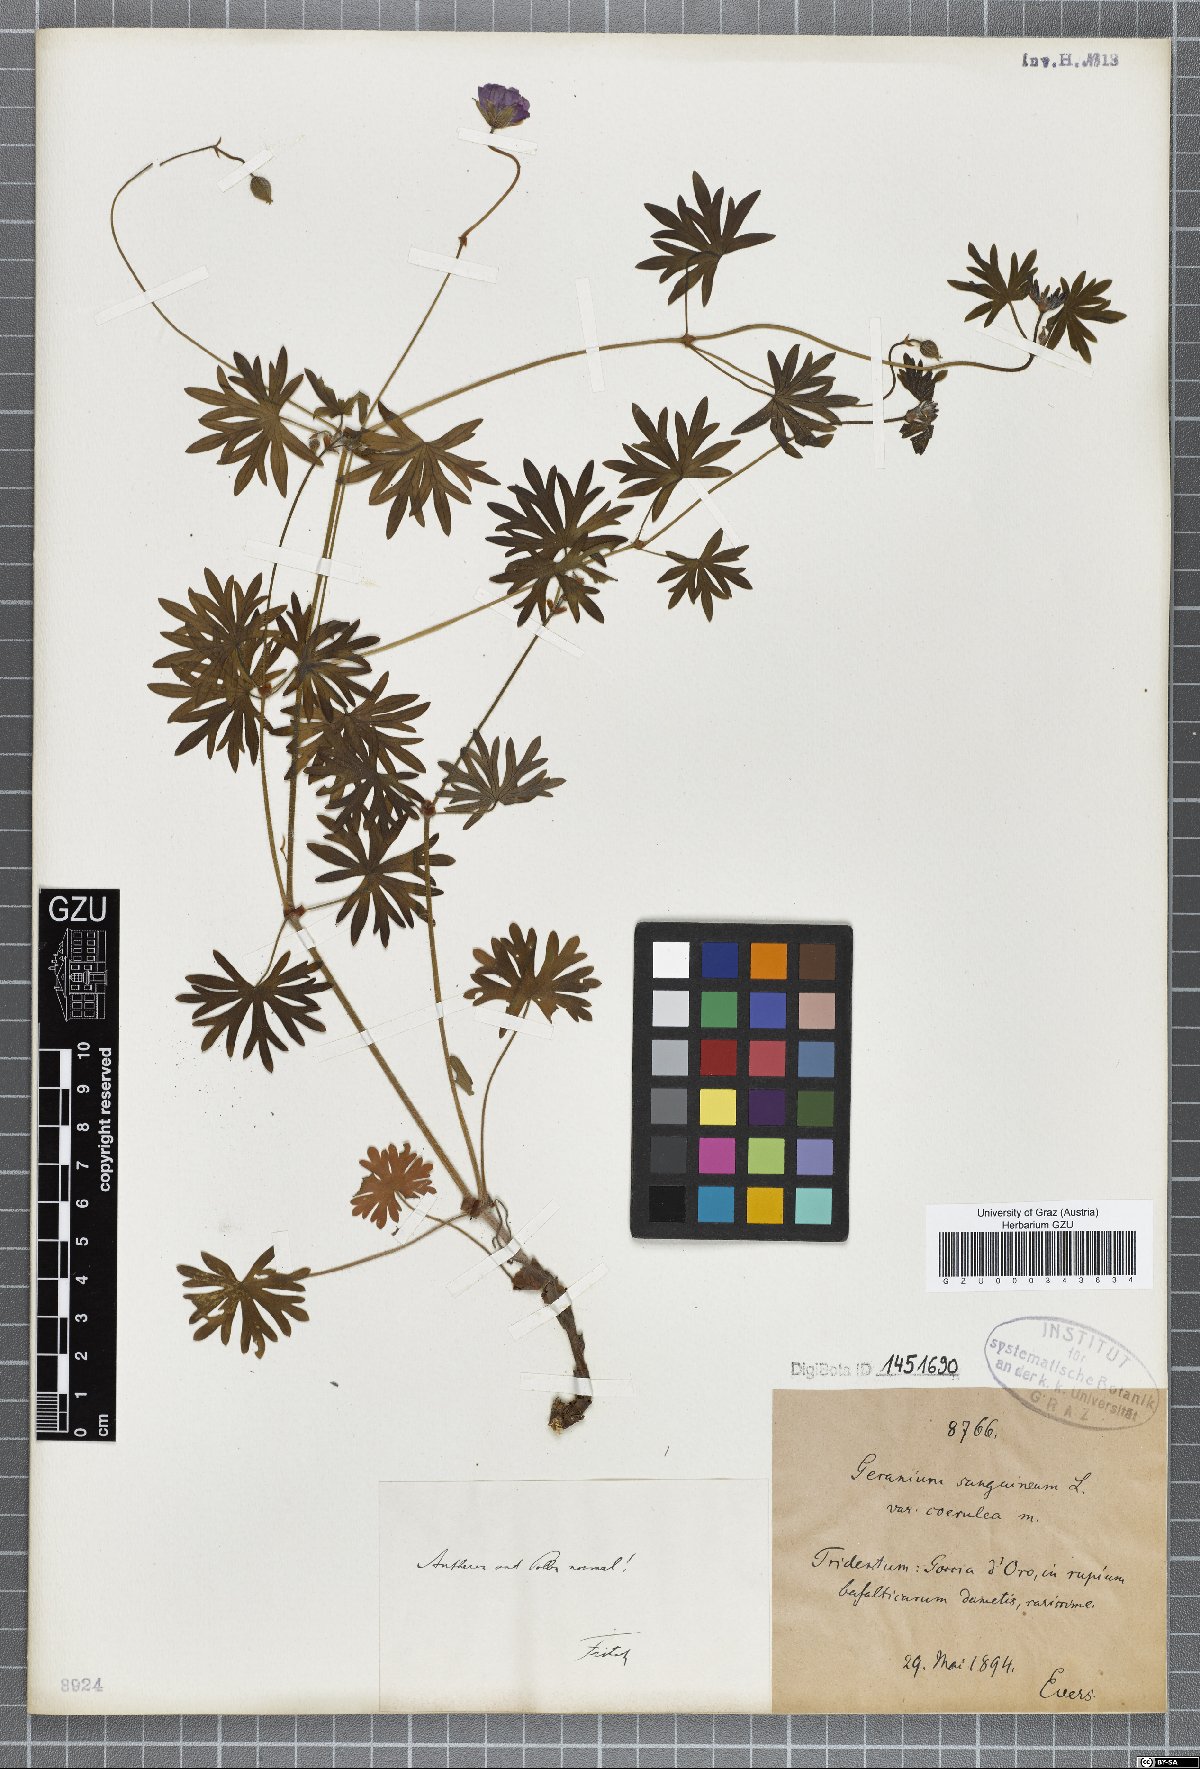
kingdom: Plantae
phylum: Tracheophyta
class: Magnoliopsida
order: Geraniales
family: Geraniaceae
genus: Geranium
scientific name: Geranium sanguineum
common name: Bloody crane's-bill
